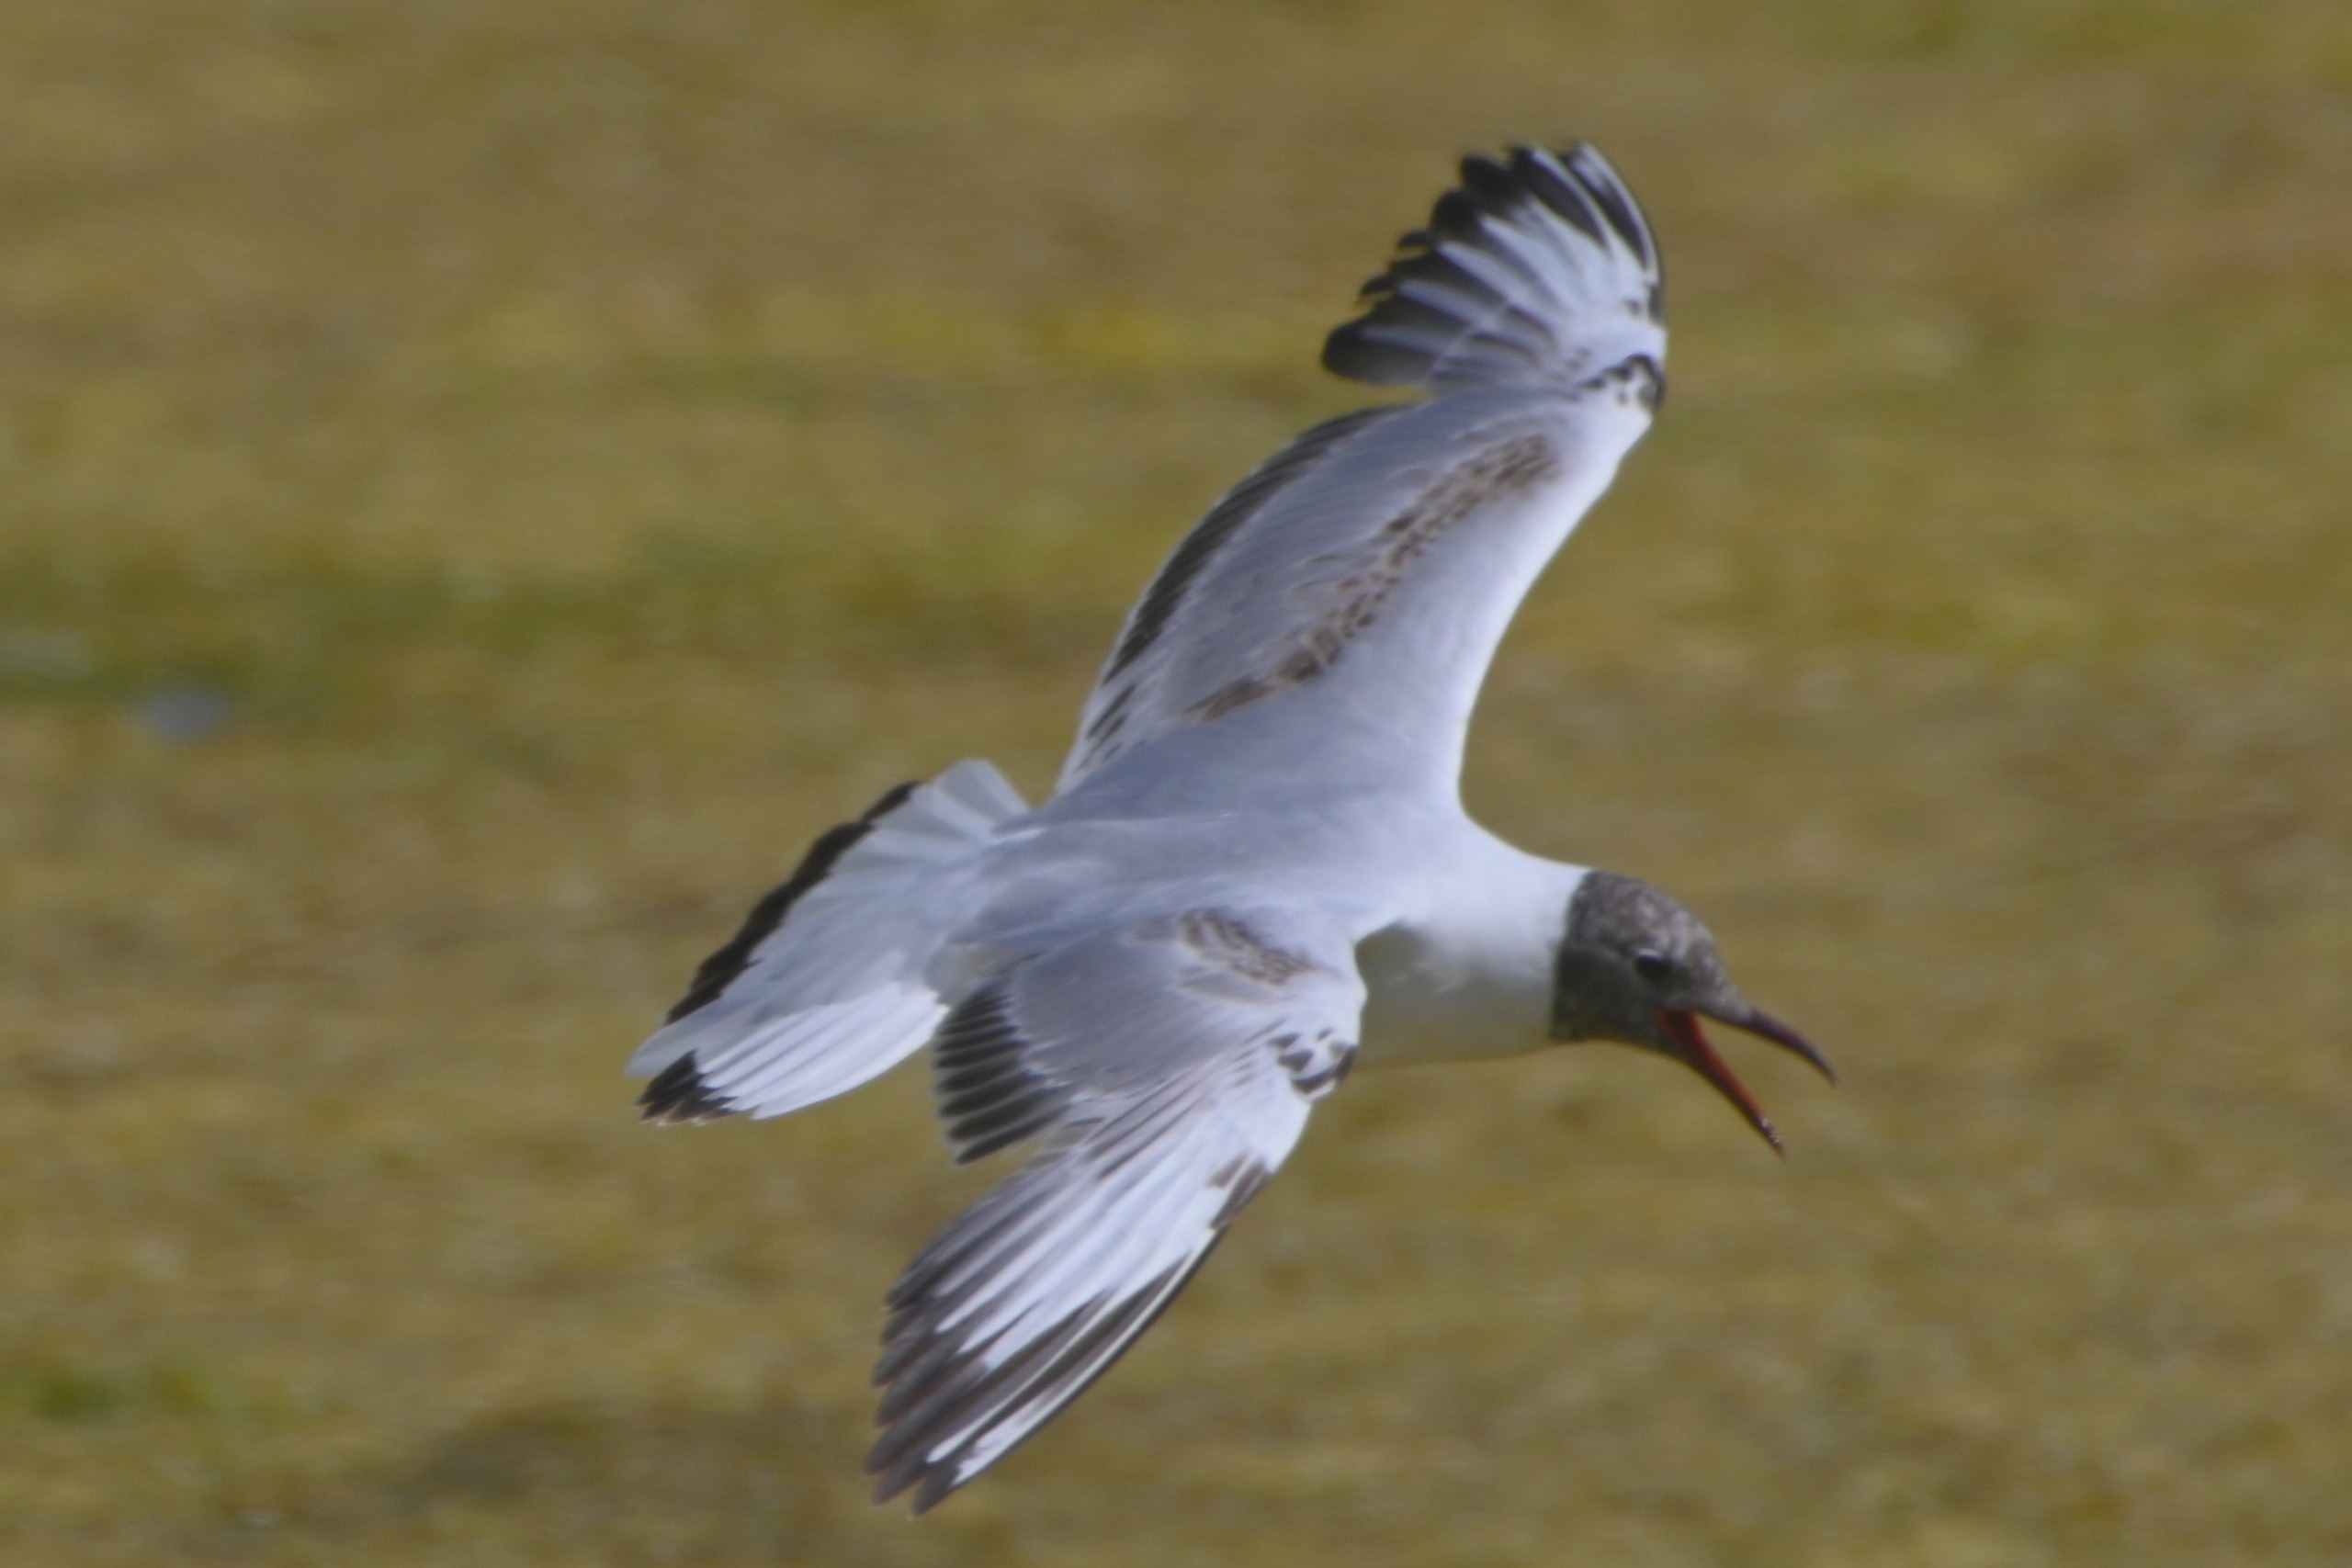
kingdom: Animalia
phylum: Chordata
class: Aves
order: Charadriiformes
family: Laridae
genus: Chroicocephalus
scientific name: Chroicocephalus ridibundus
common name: Hættemåge
